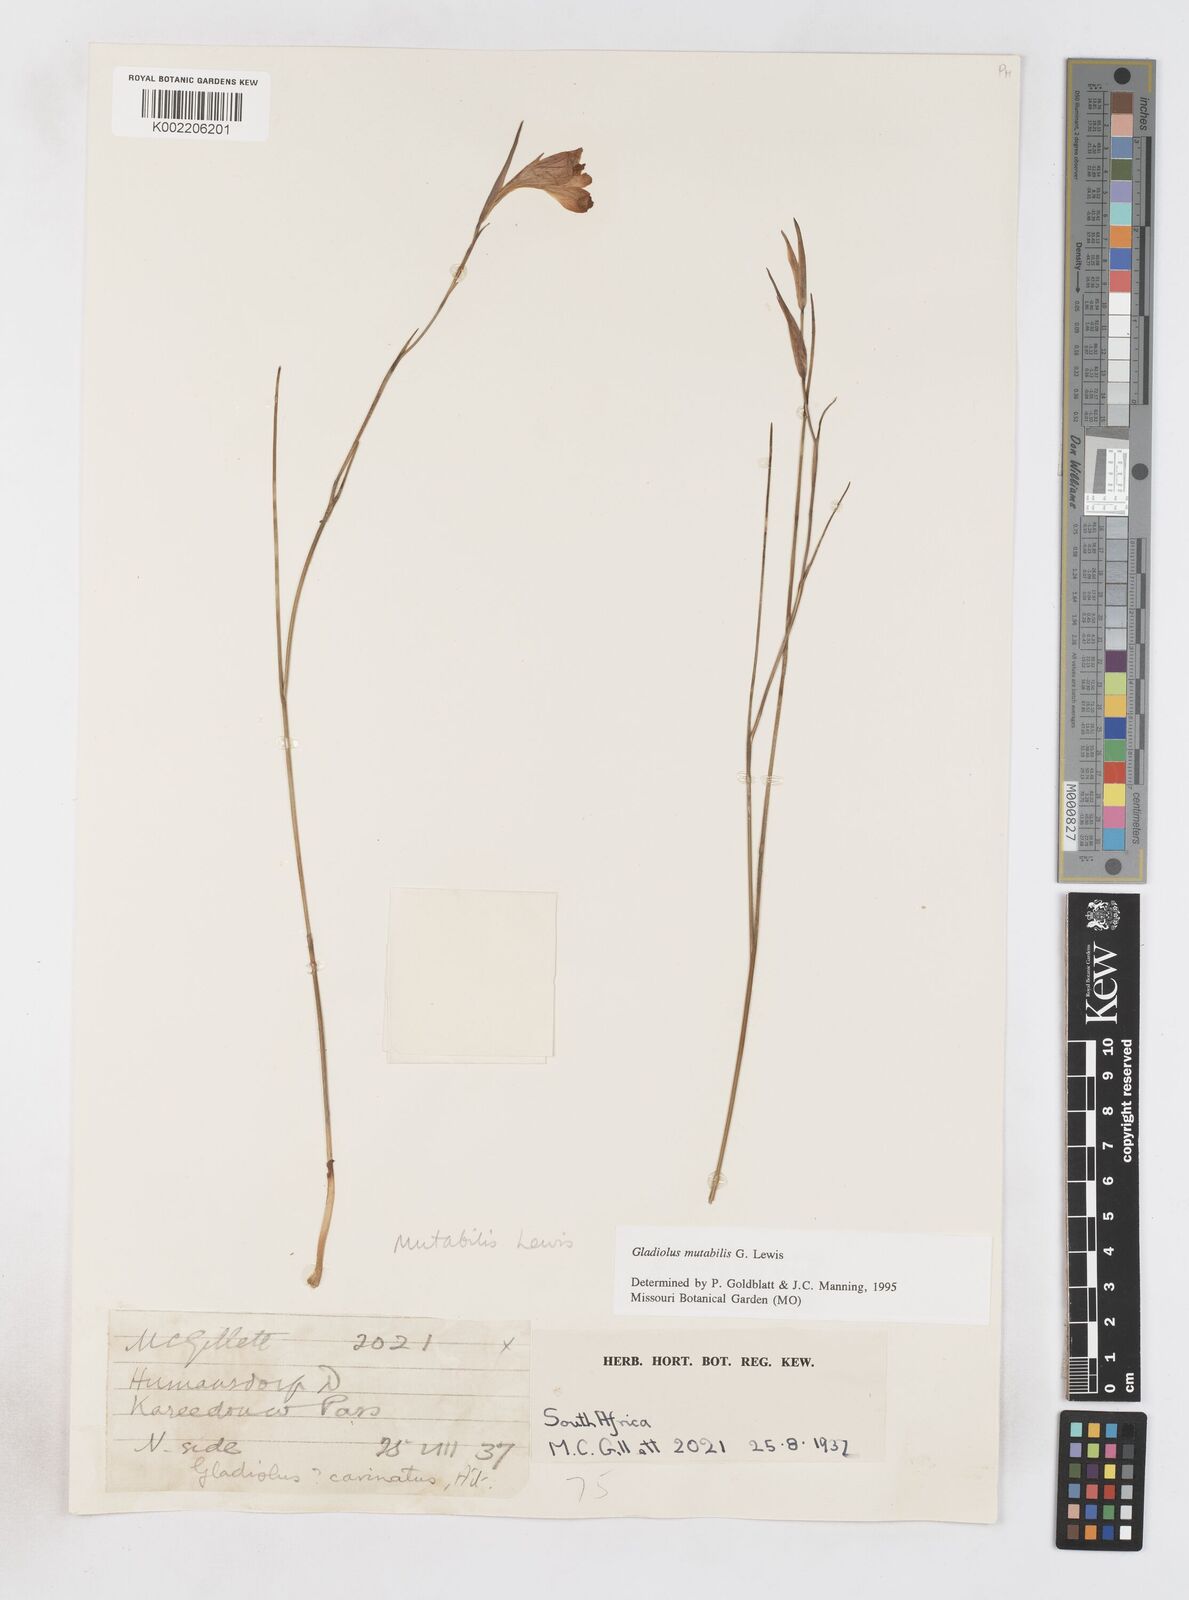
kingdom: Plantae
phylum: Tracheophyta
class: Liliopsida
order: Asparagales
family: Iridaceae
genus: Gladiolus
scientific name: Gladiolus mutabilis
